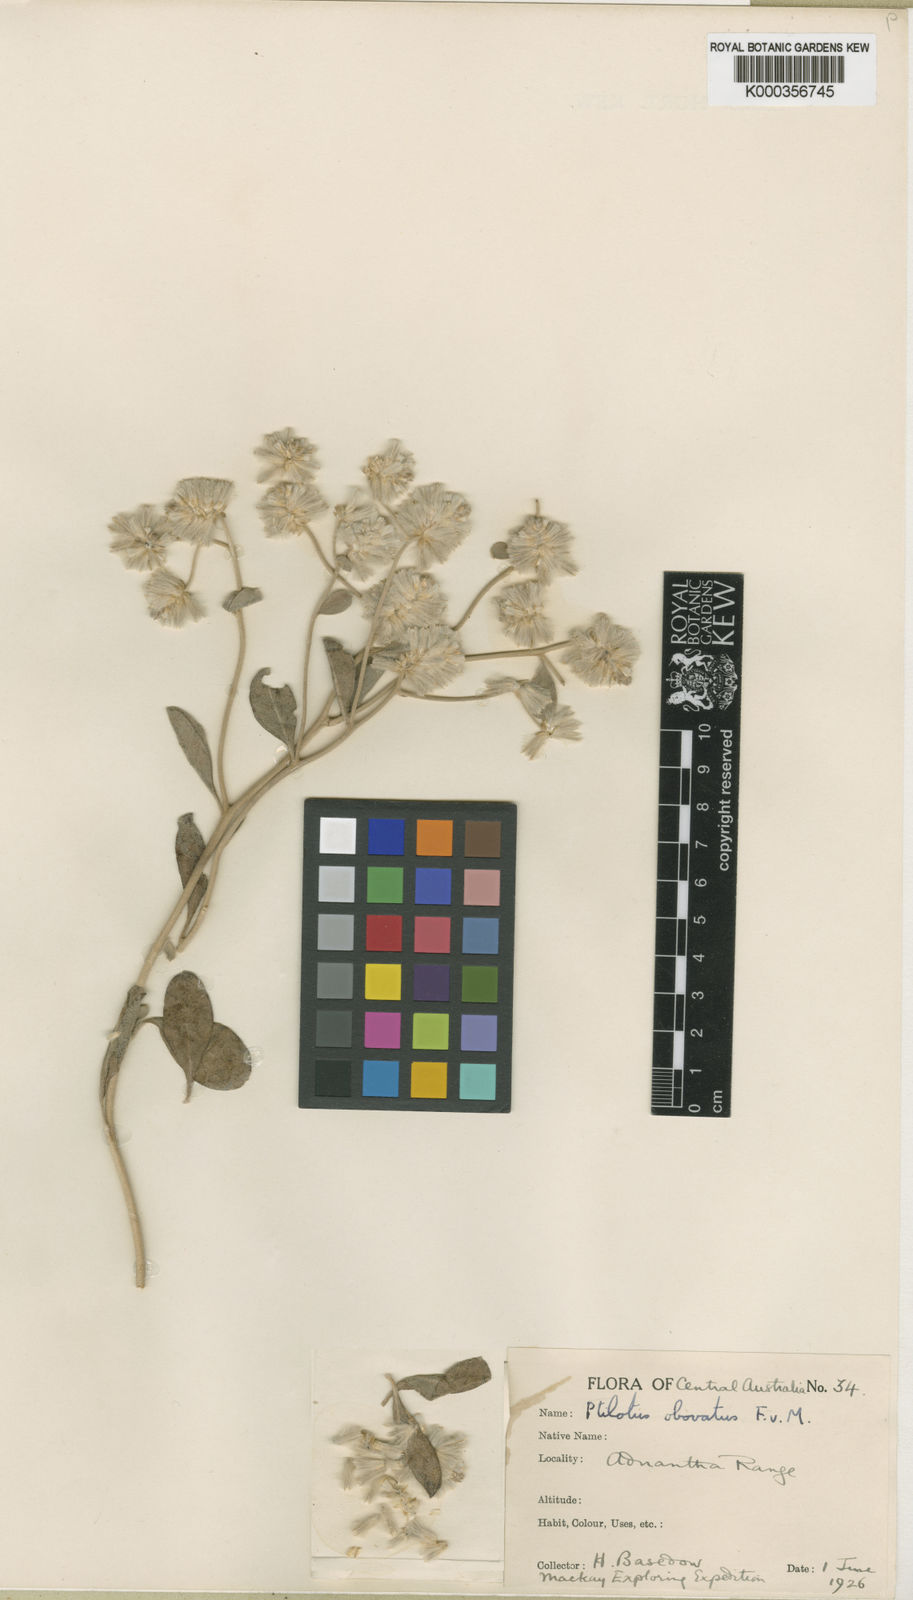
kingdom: Plantae
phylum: Tracheophyta
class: Magnoliopsida
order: Caryophyllales
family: Amaranthaceae
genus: Ptilotus
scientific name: Ptilotus obovatus
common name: Cottonbush
